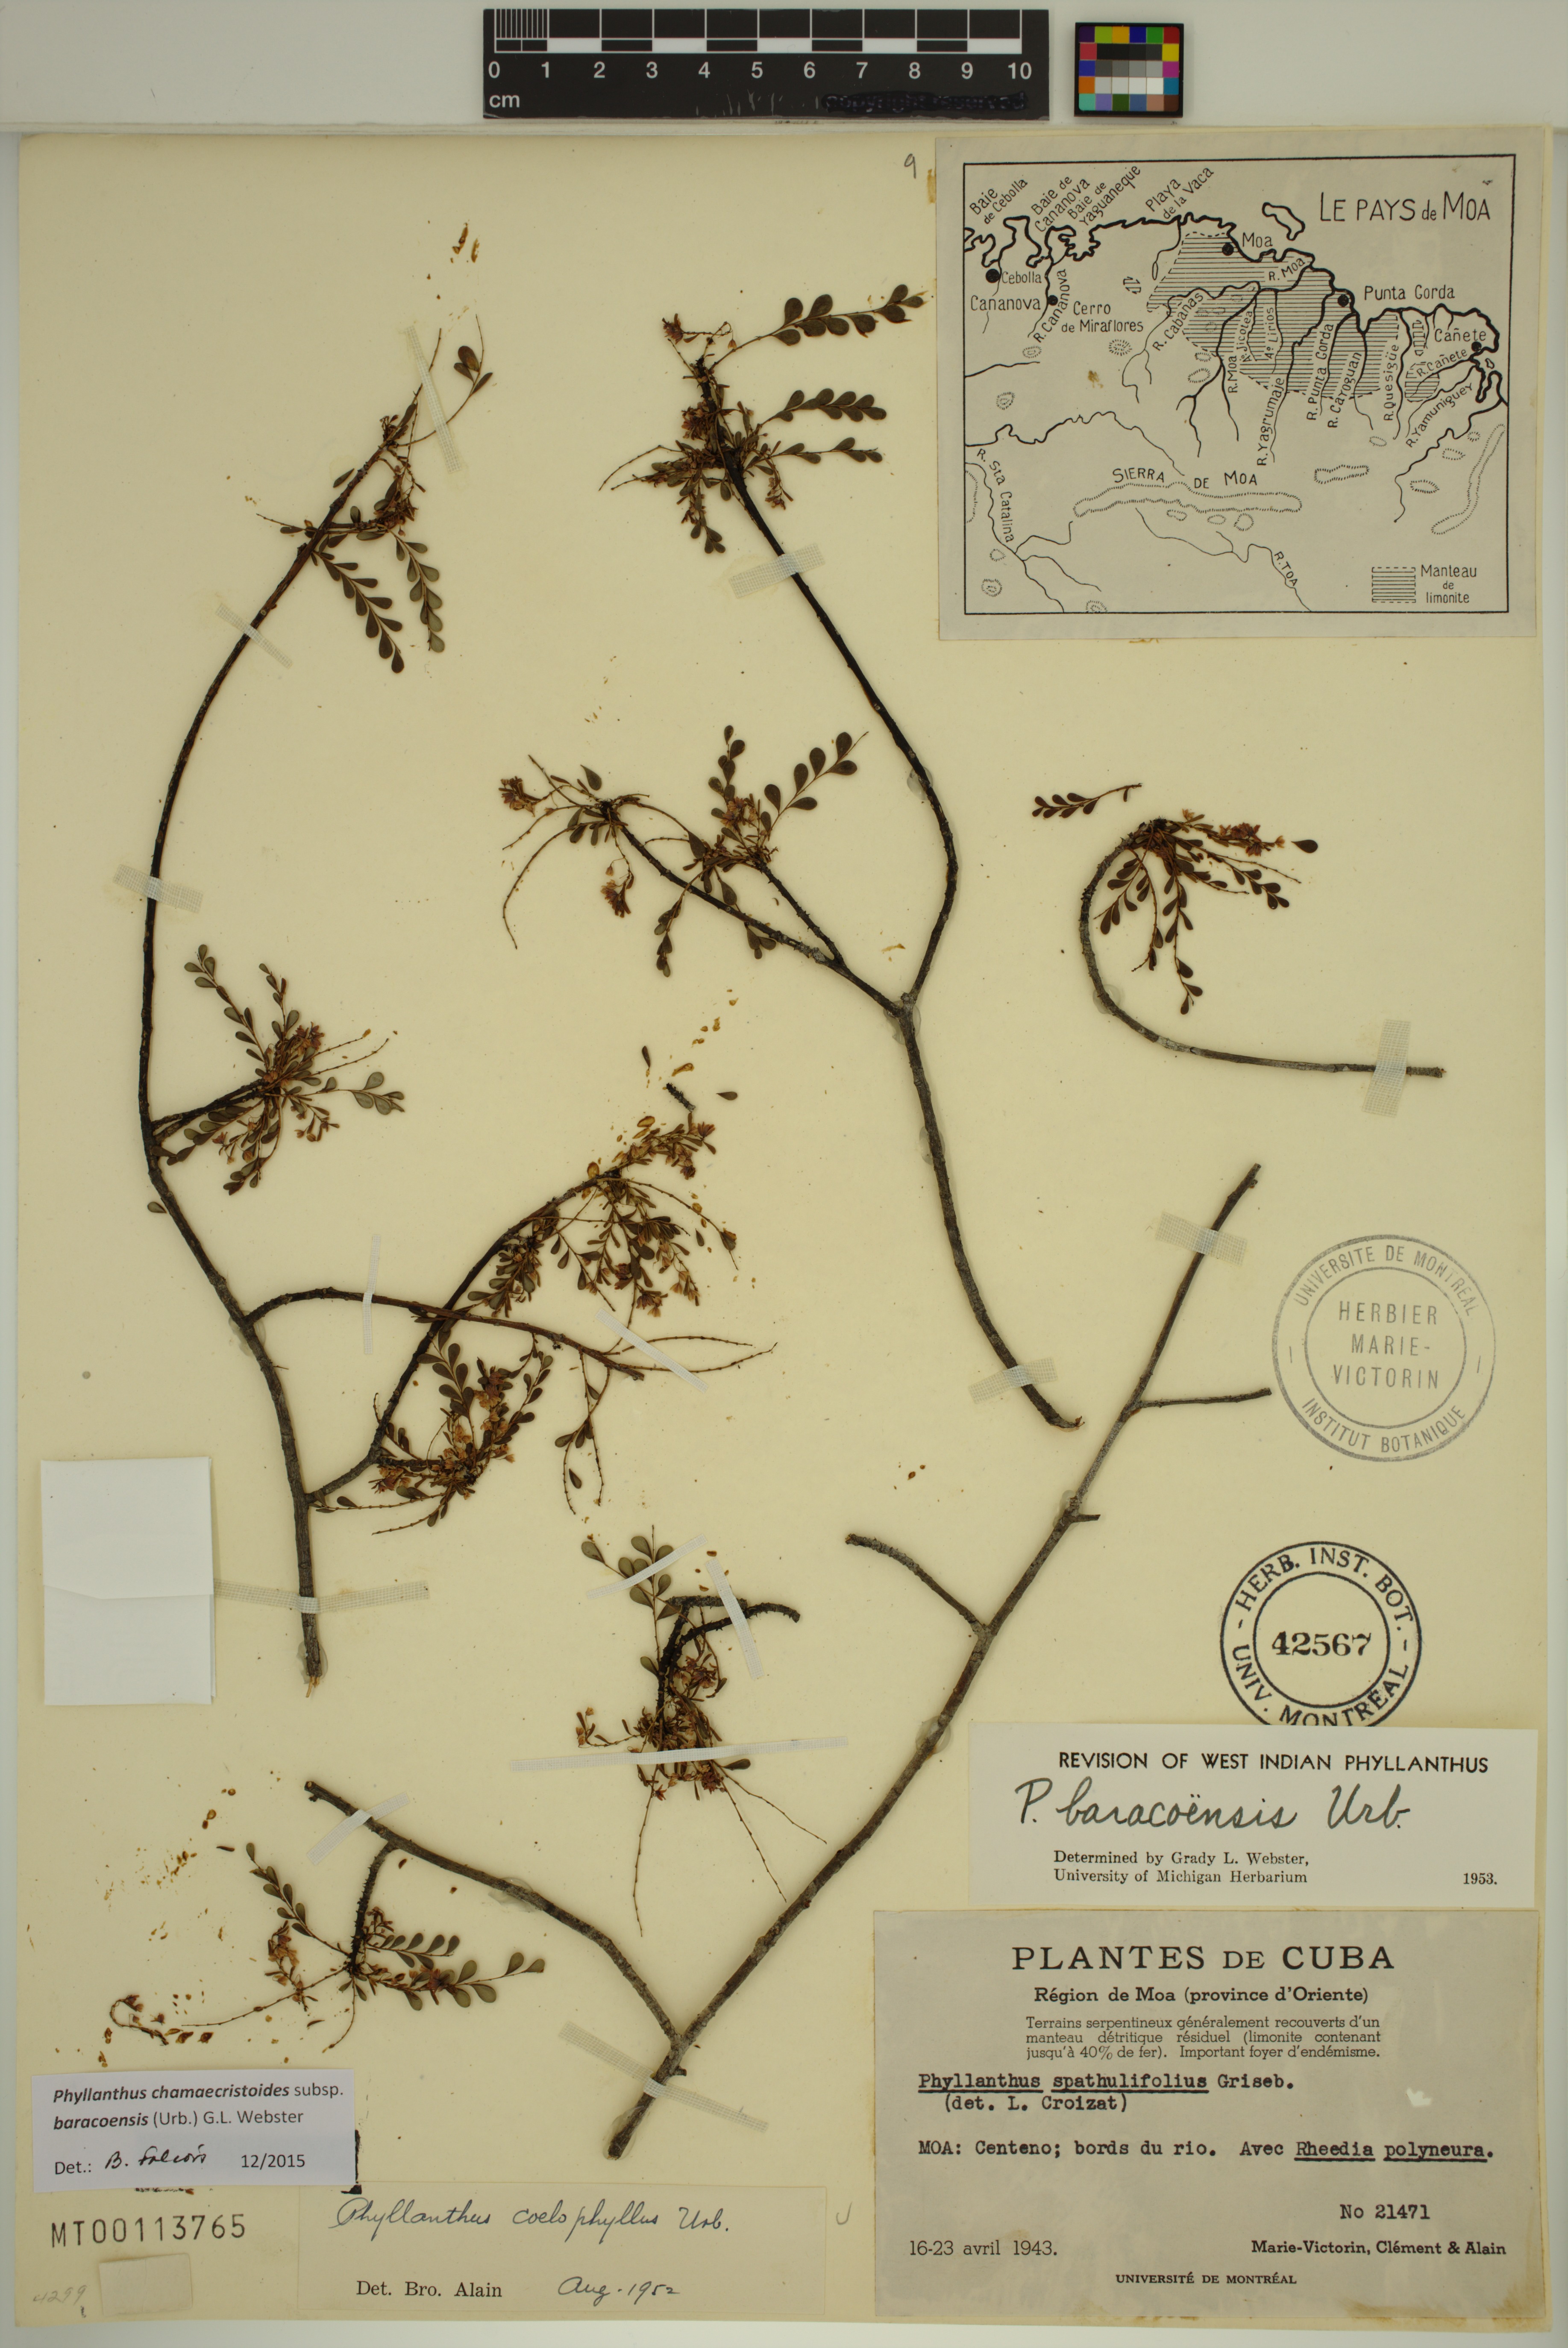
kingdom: Plantae
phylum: Tracheophyta
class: Magnoliopsida
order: Malpighiales
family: Phyllanthaceae
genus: Phyllanthus
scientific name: Phyllanthus chamaecristoides
